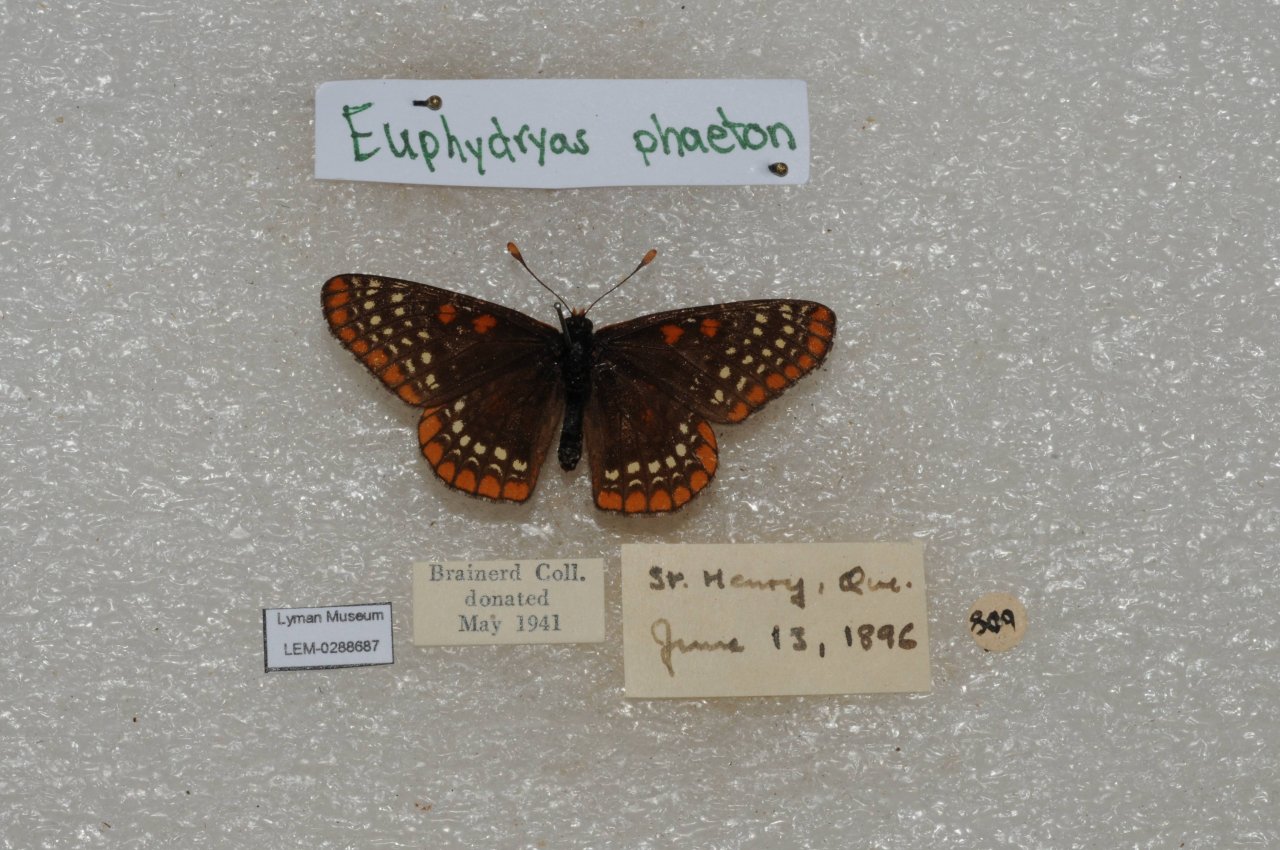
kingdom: Animalia
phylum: Arthropoda
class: Insecta
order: Lepidoptera
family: Nymphalidae
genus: Euphydryas
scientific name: Euphydryas phaeton
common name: Baltimore Checkerspot
